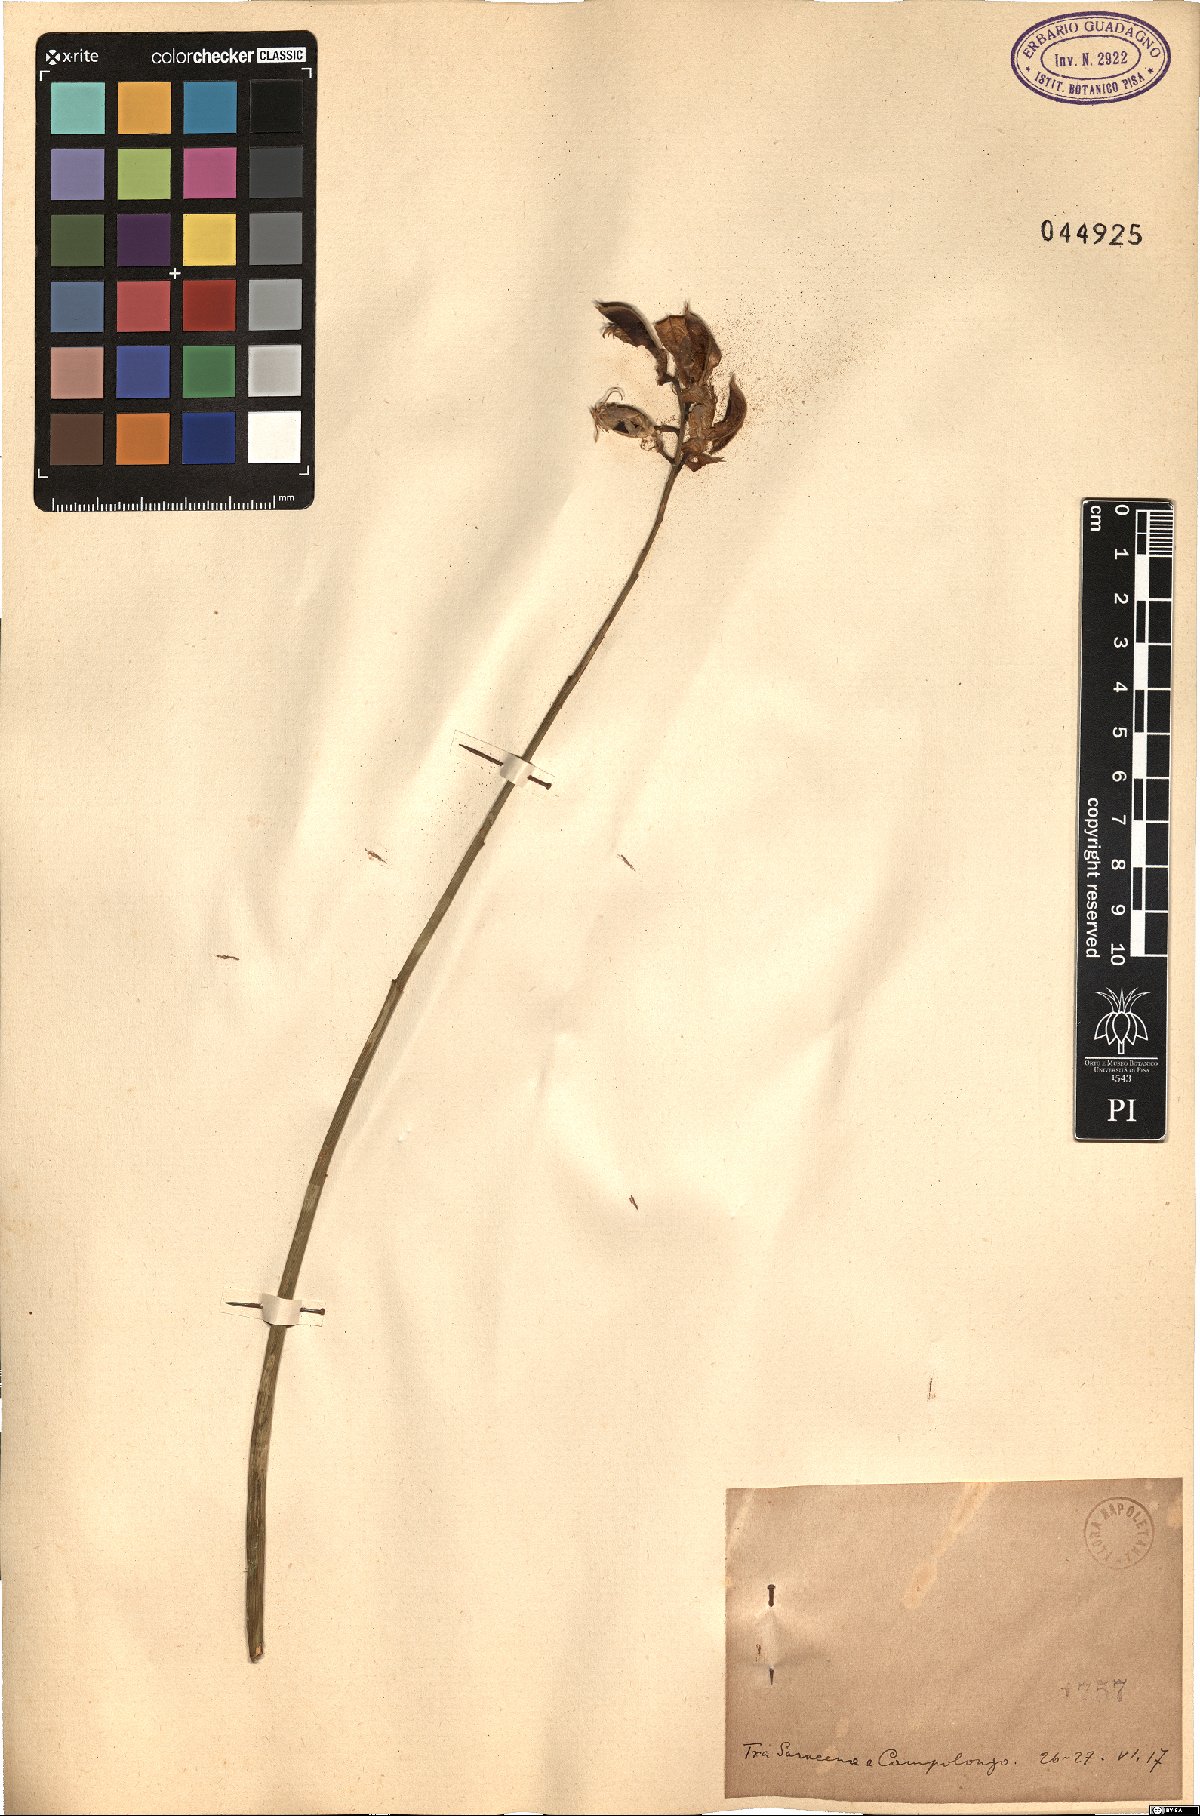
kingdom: Plantae
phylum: Tracheophyta
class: Magnoliopsida
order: Fabales
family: Fabaceae
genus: Spartium
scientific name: Spartium
